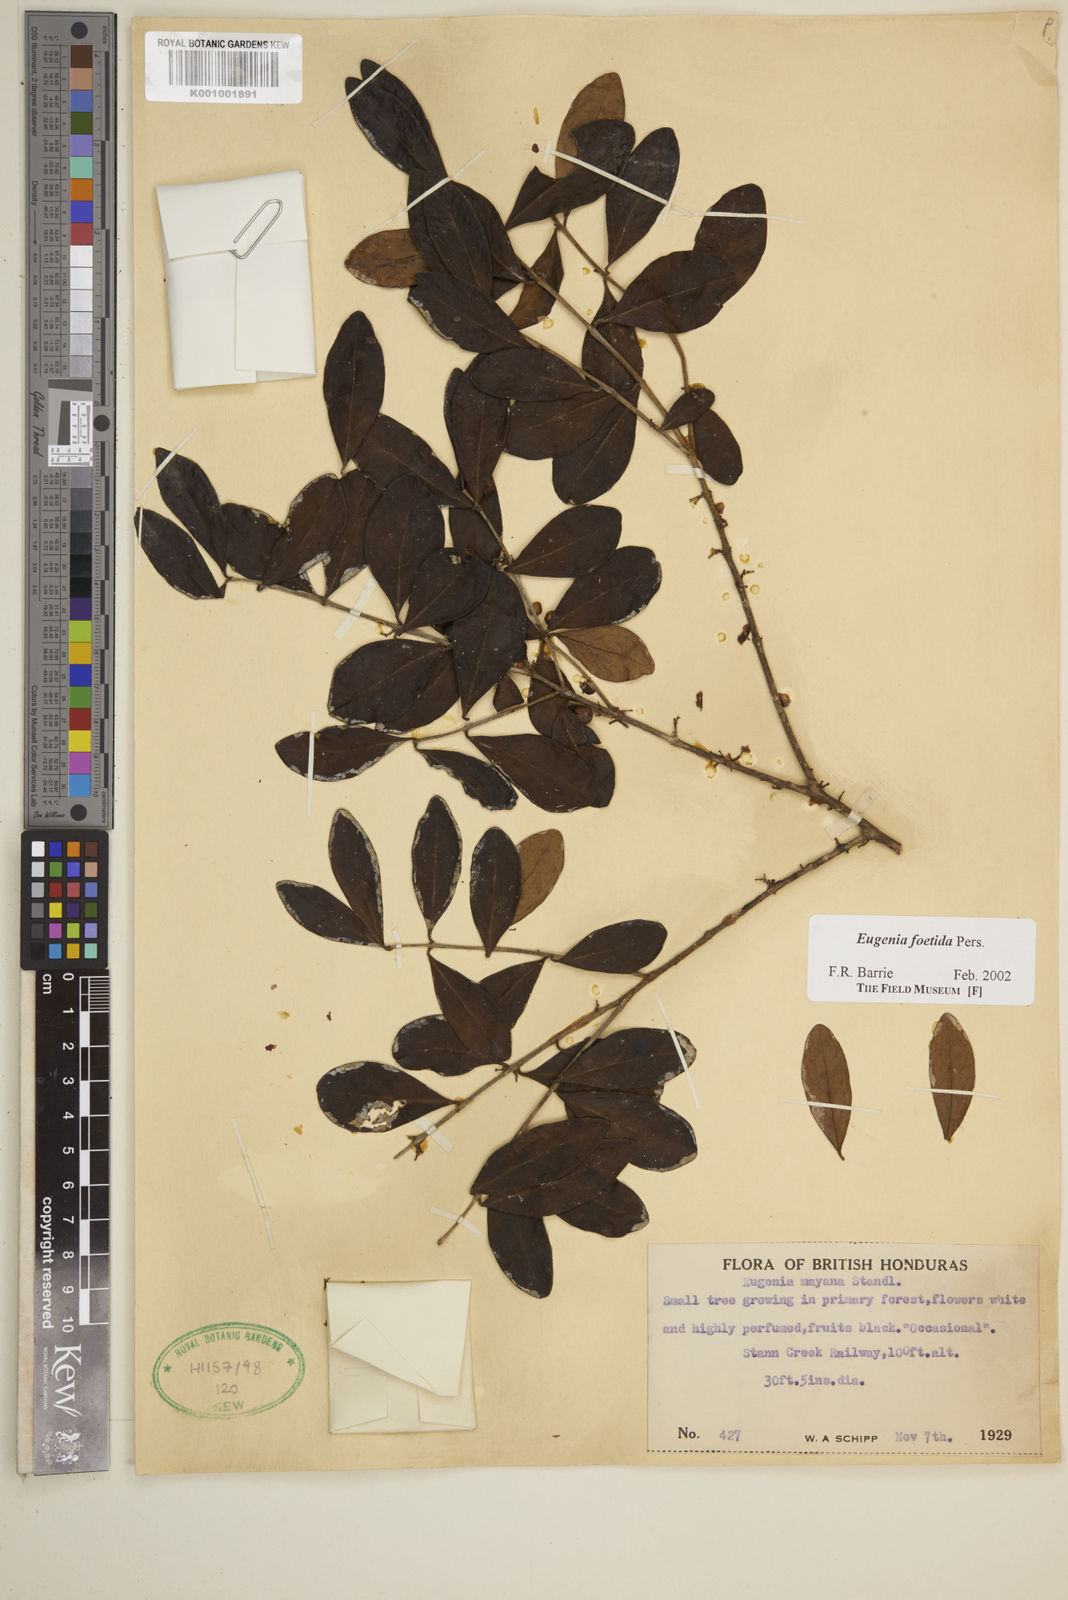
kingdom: Plantae
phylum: Tracheophyta
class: Magnoliopsida
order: Myrtales
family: Myrtaceae
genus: Eugenia
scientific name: Eugenia foetida
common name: White wattling
